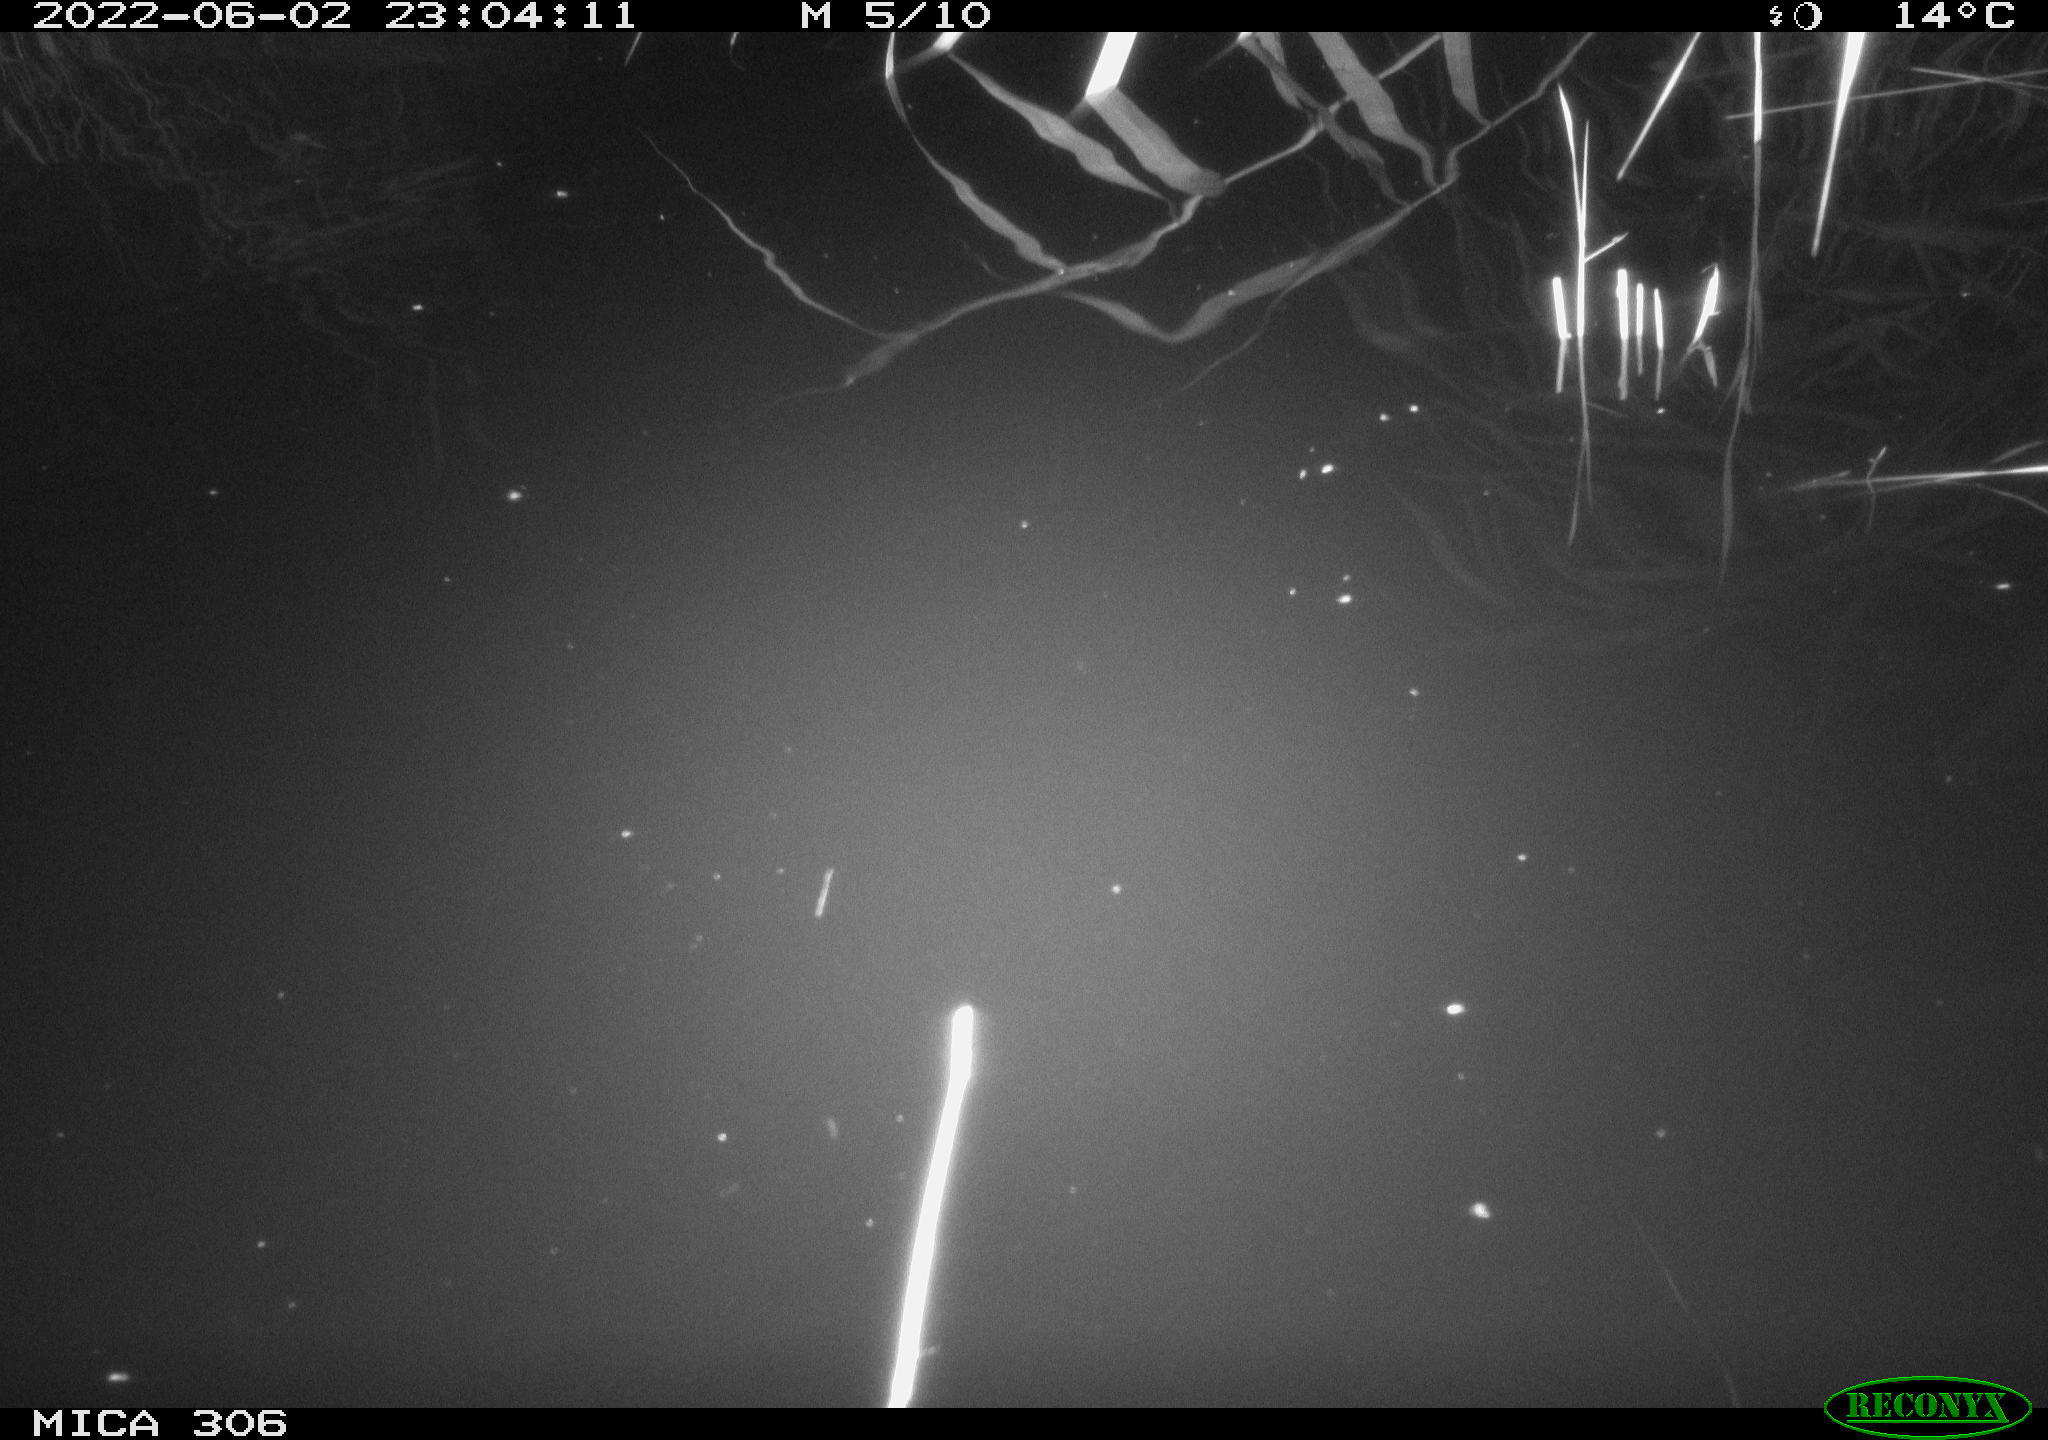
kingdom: Animalia
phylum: Chordata
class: Aves
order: Anseriformes
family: Anatidae
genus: Anas
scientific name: Anas platyrhynchos
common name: Mallard
